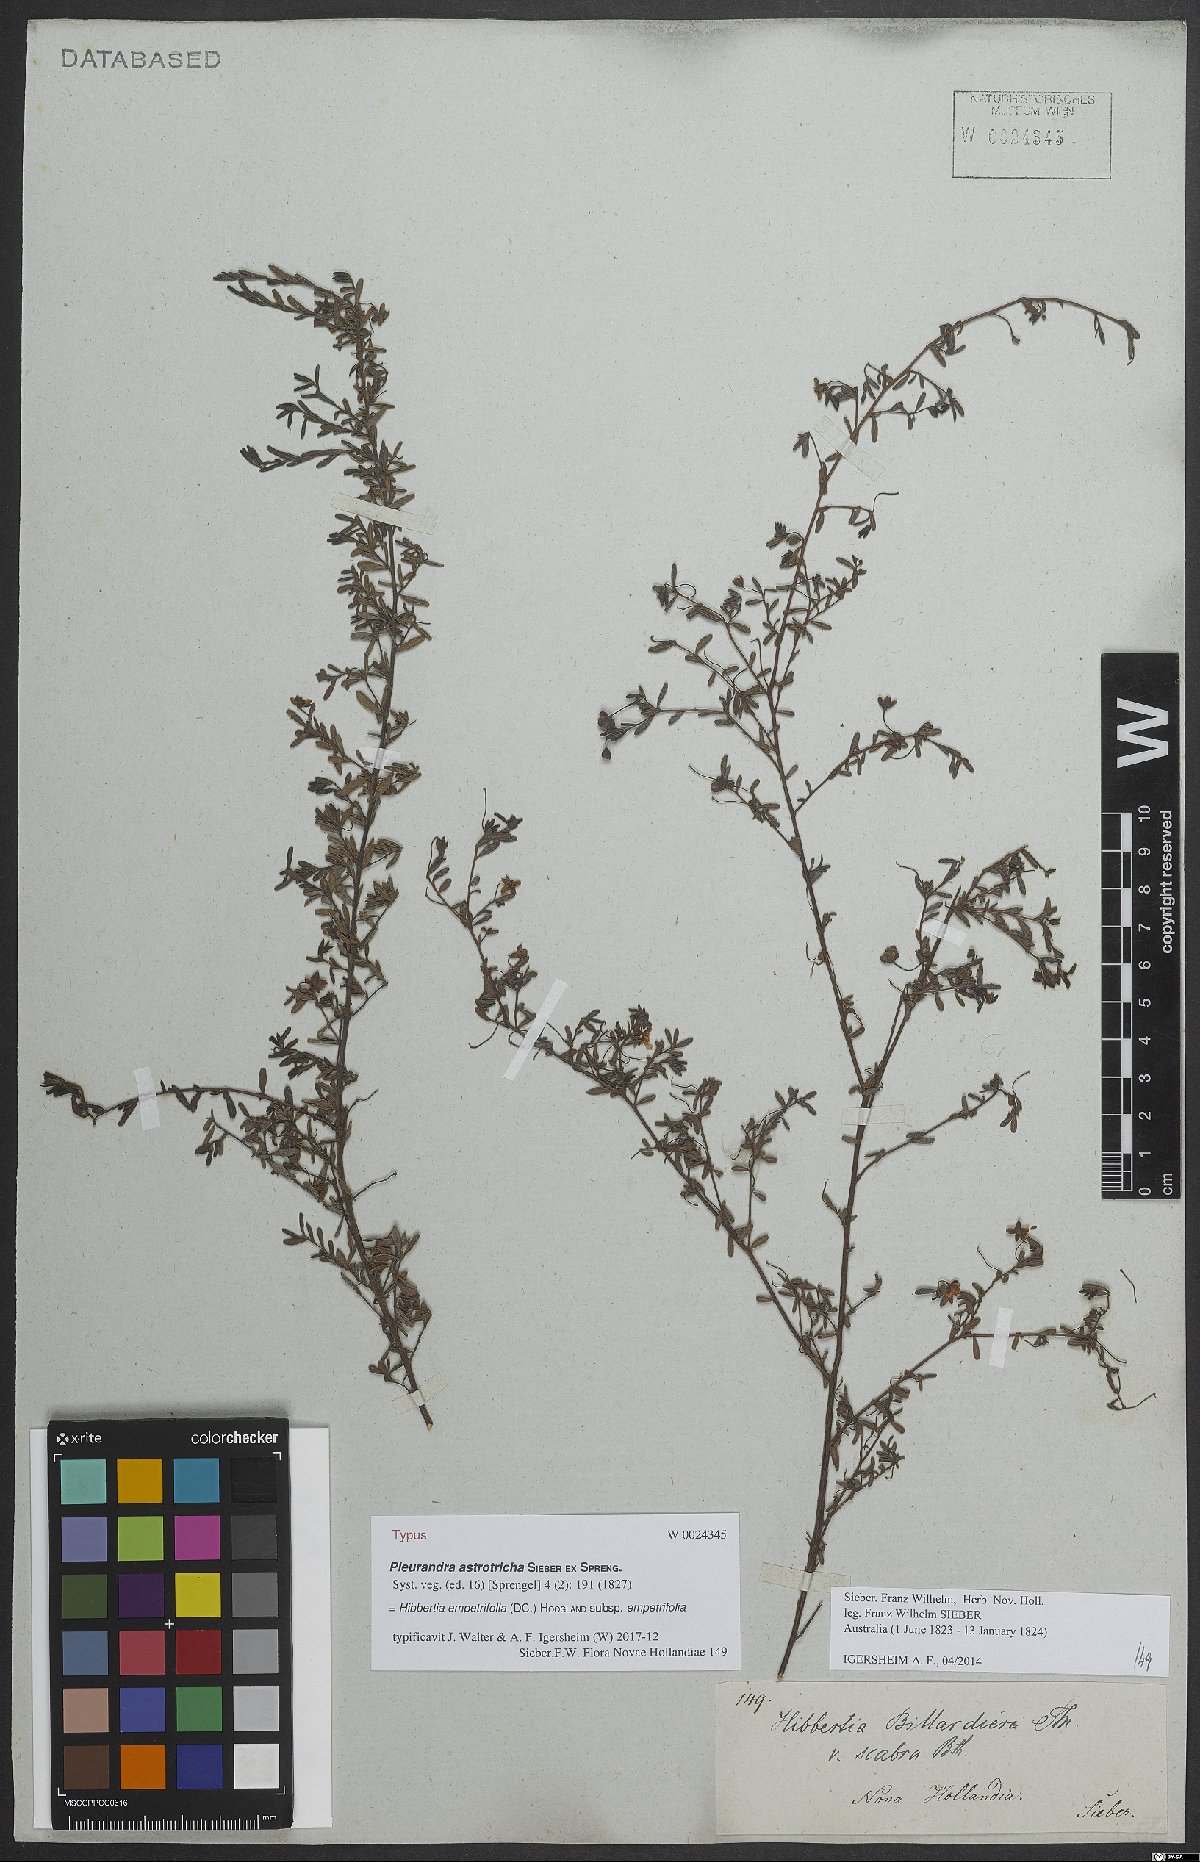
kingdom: Plantae
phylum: Tracheophyta
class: Magnoliopsida
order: Dilleniales
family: Dilleniaceae
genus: Hibbertia
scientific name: Hibbertia empetrifolia
